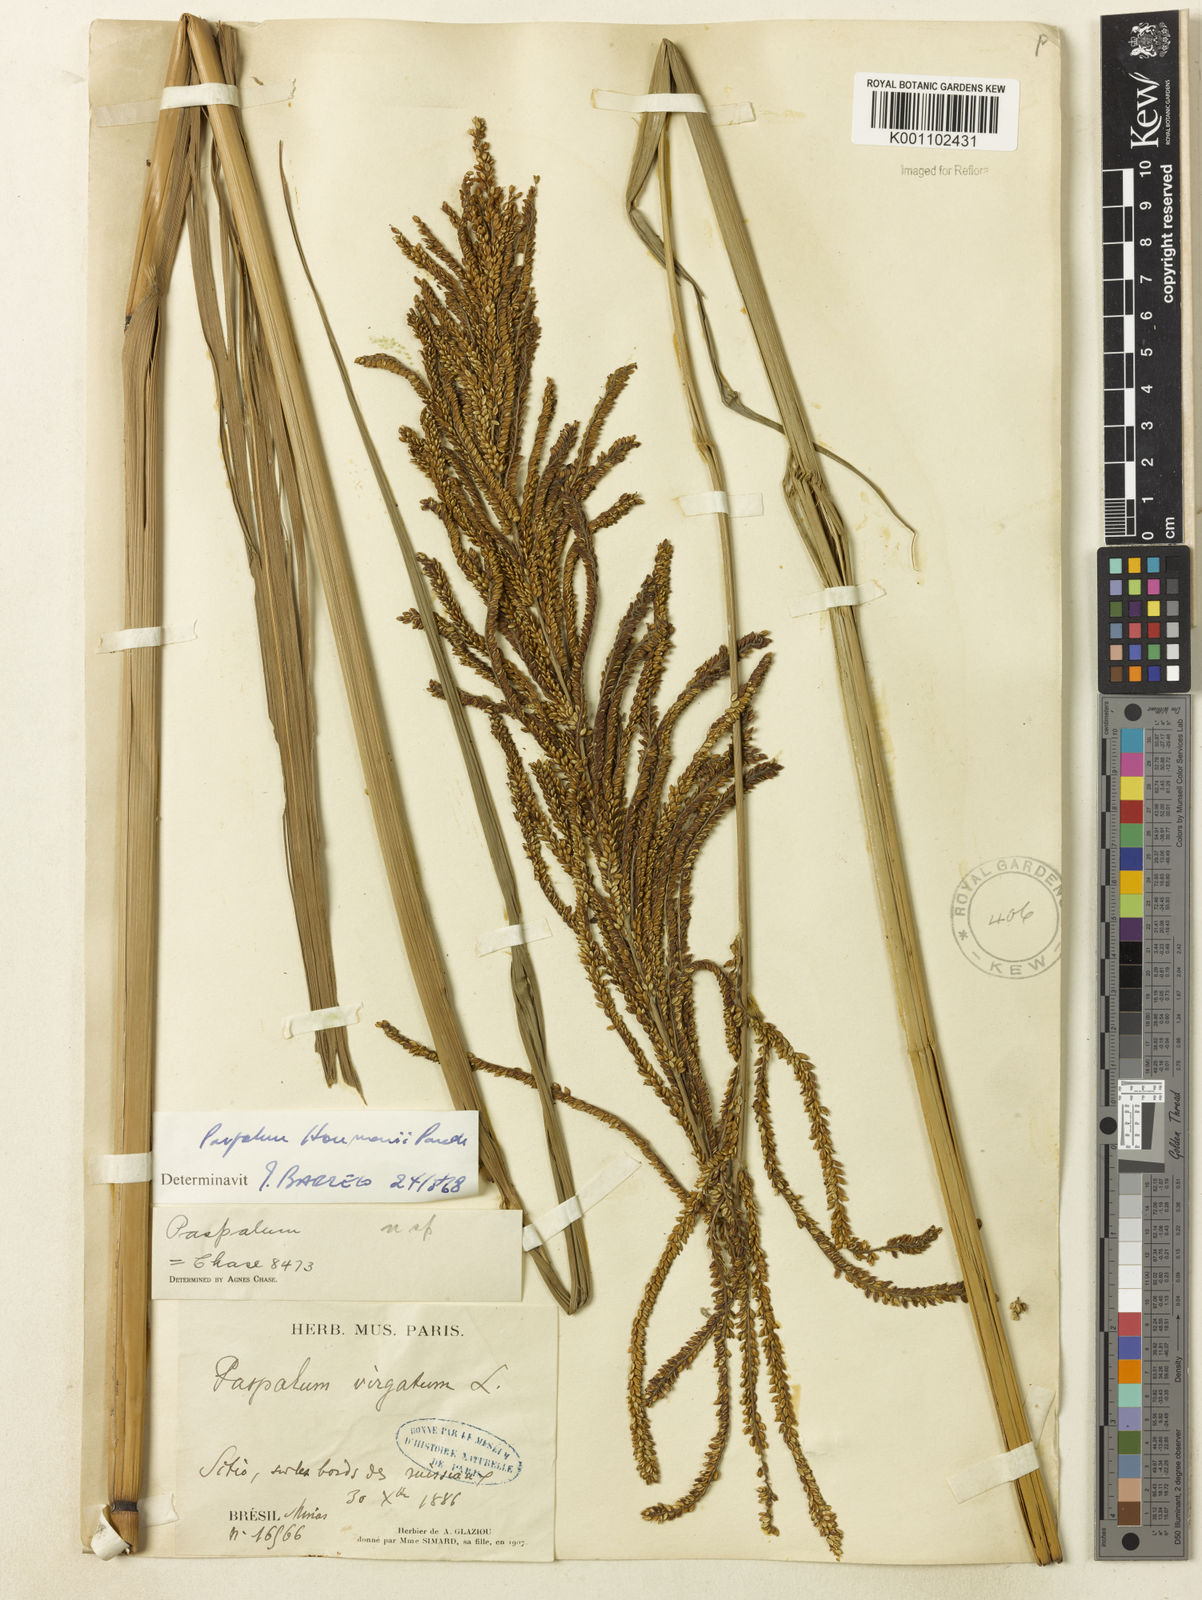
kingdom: Plantae
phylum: Tracheophyta
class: Liliopsida
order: Poales
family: Poaceae
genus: Paspalum
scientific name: Paspalum exaltatum
